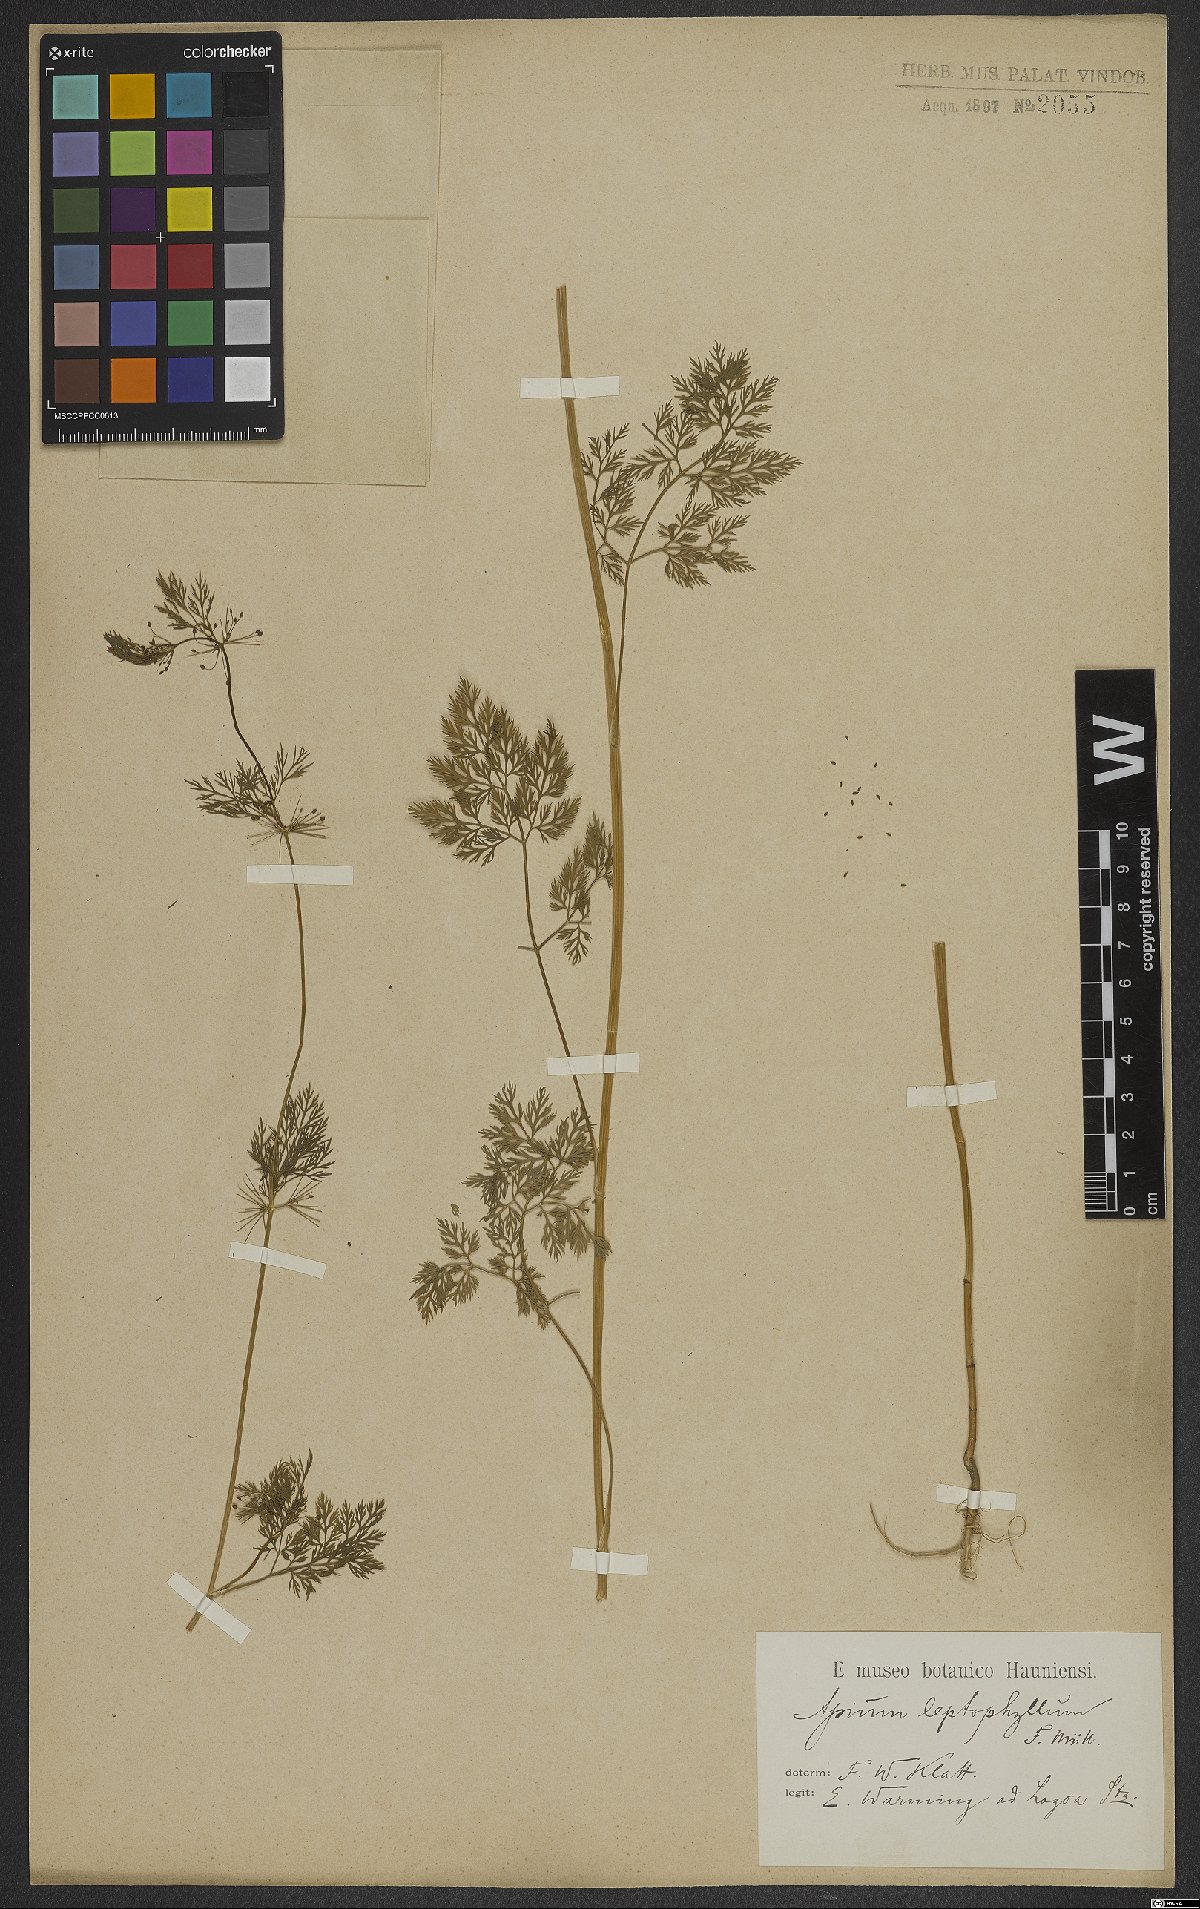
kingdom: Plantae
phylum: Tracheophyta
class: Magnoliopsida
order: Apiales
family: Apiaceae
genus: Cyclospermum
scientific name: Cyclospermum leptophyllum
